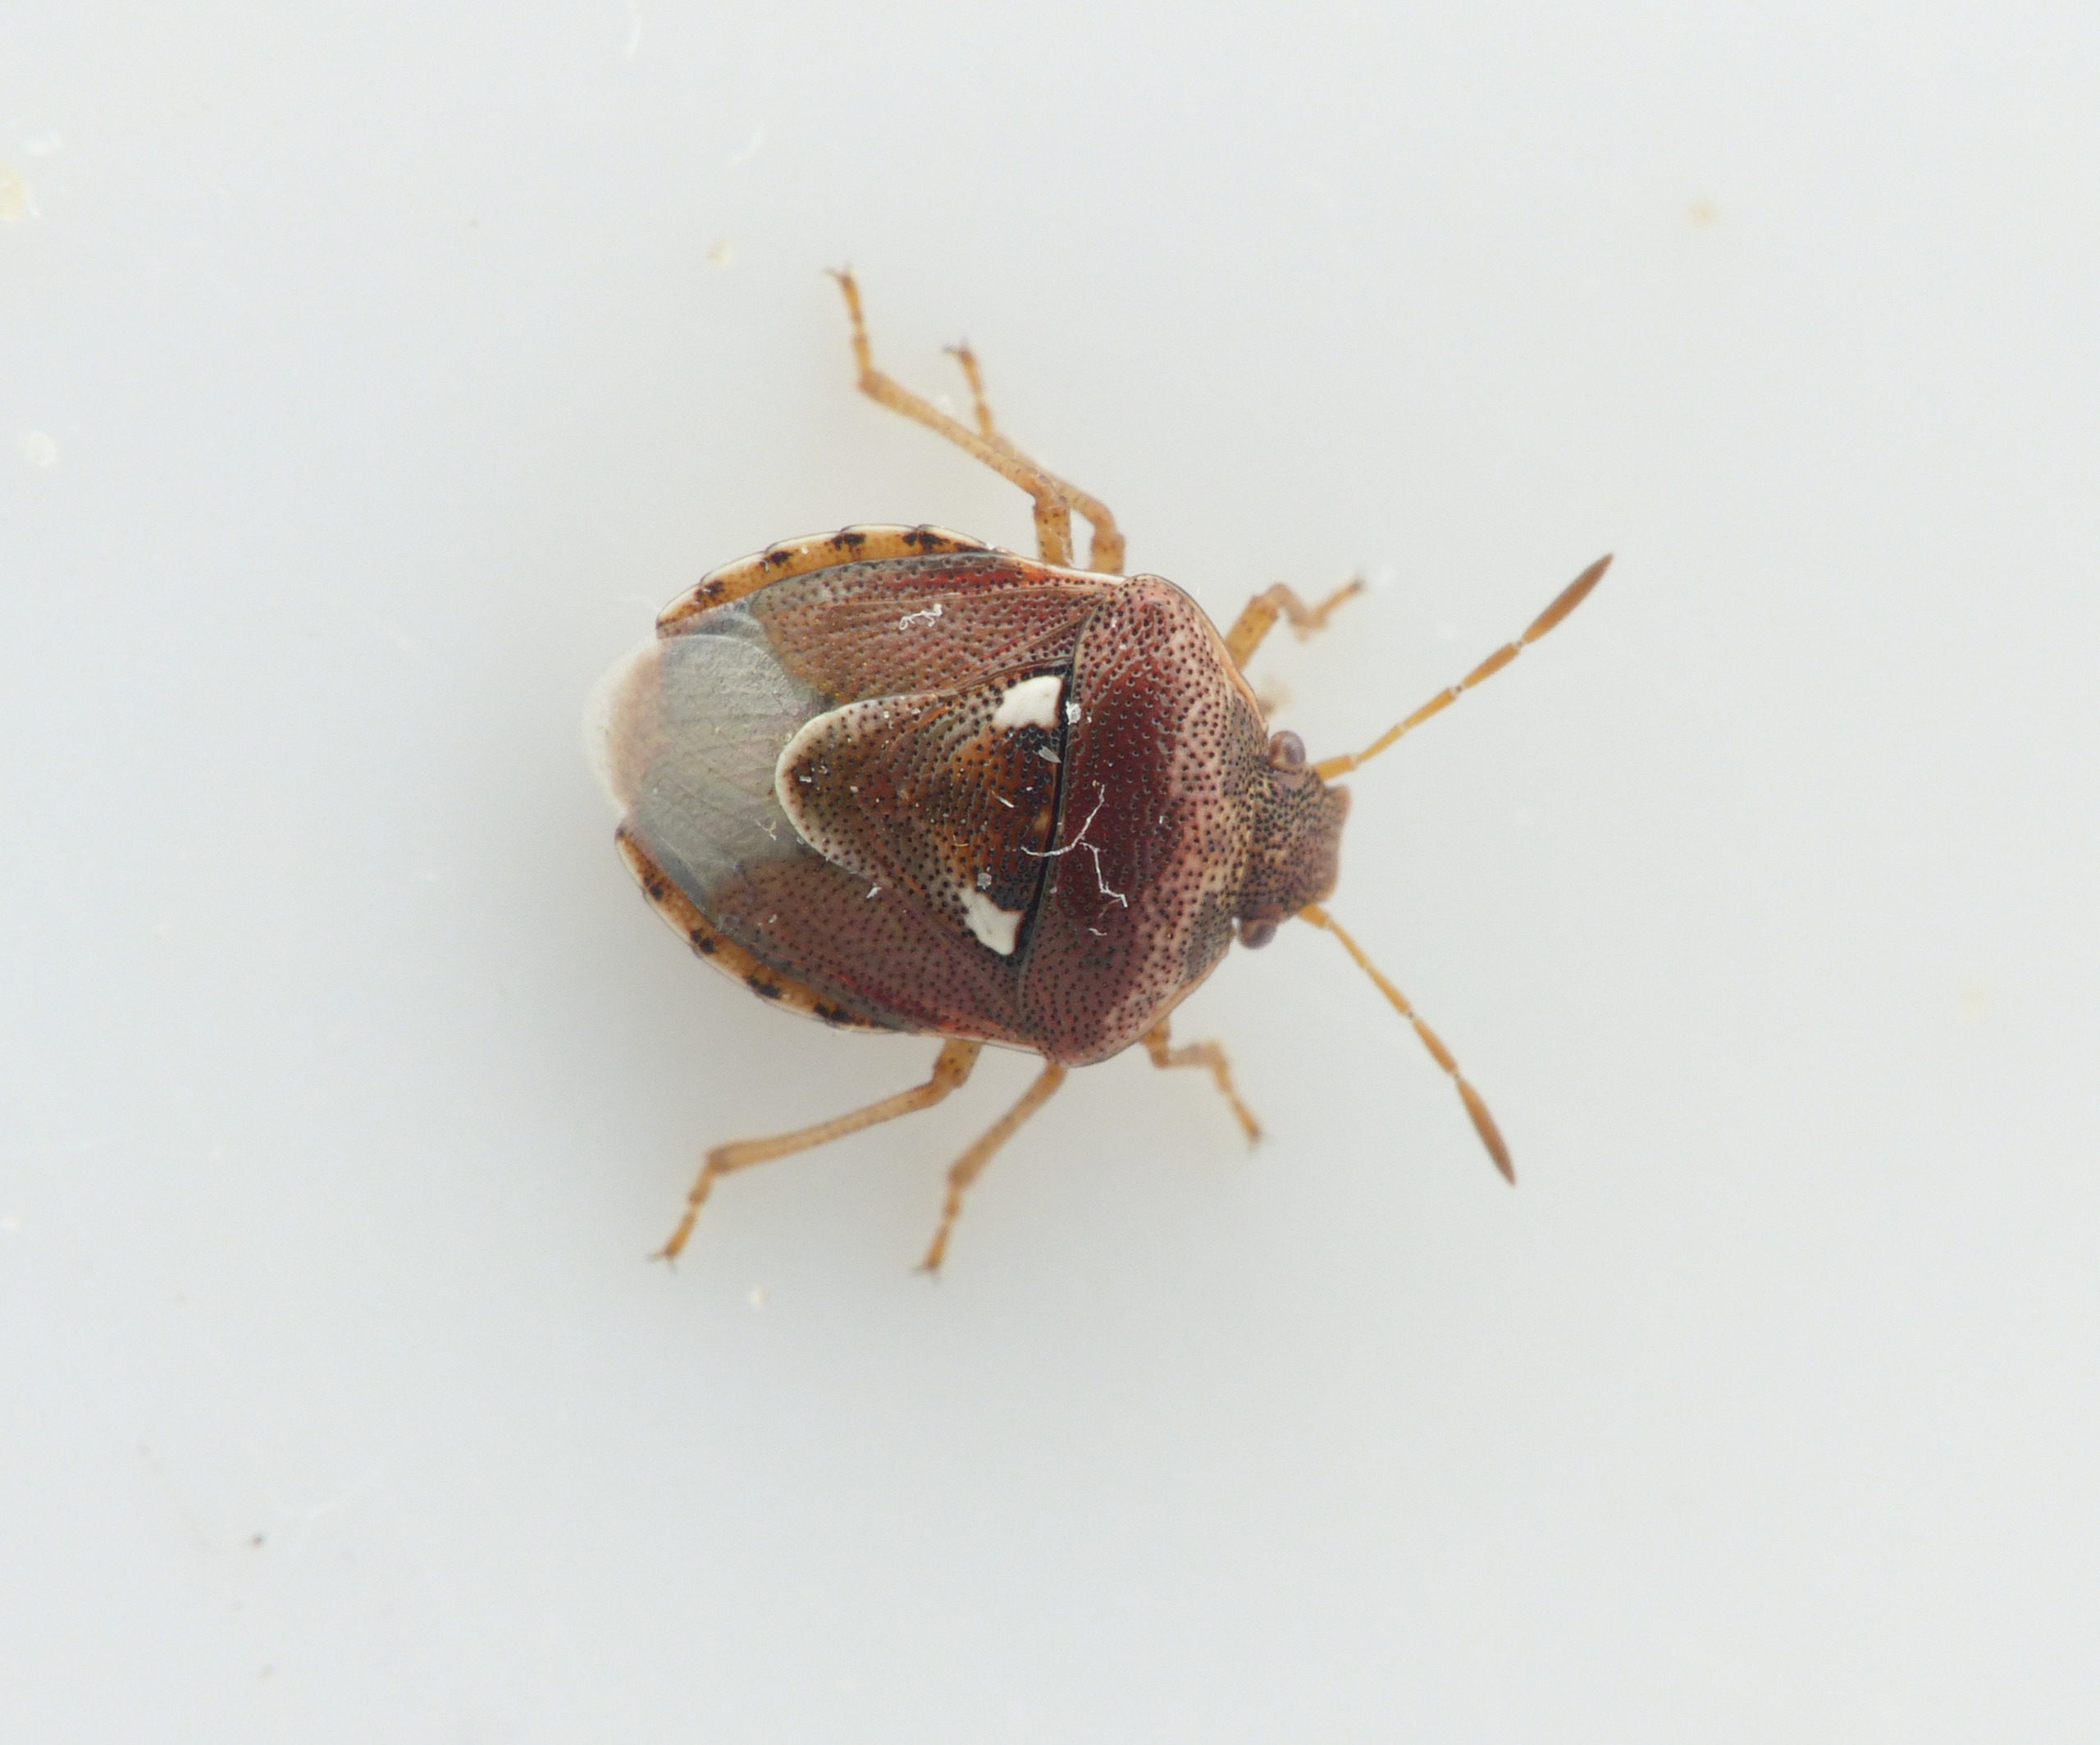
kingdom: Animalia
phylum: Arthropoda
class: Insecta
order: Hemiptera
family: Pentatomidae
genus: Stagonomus
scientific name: Stagonomus bipunctatus
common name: Toplettet urtetæge
